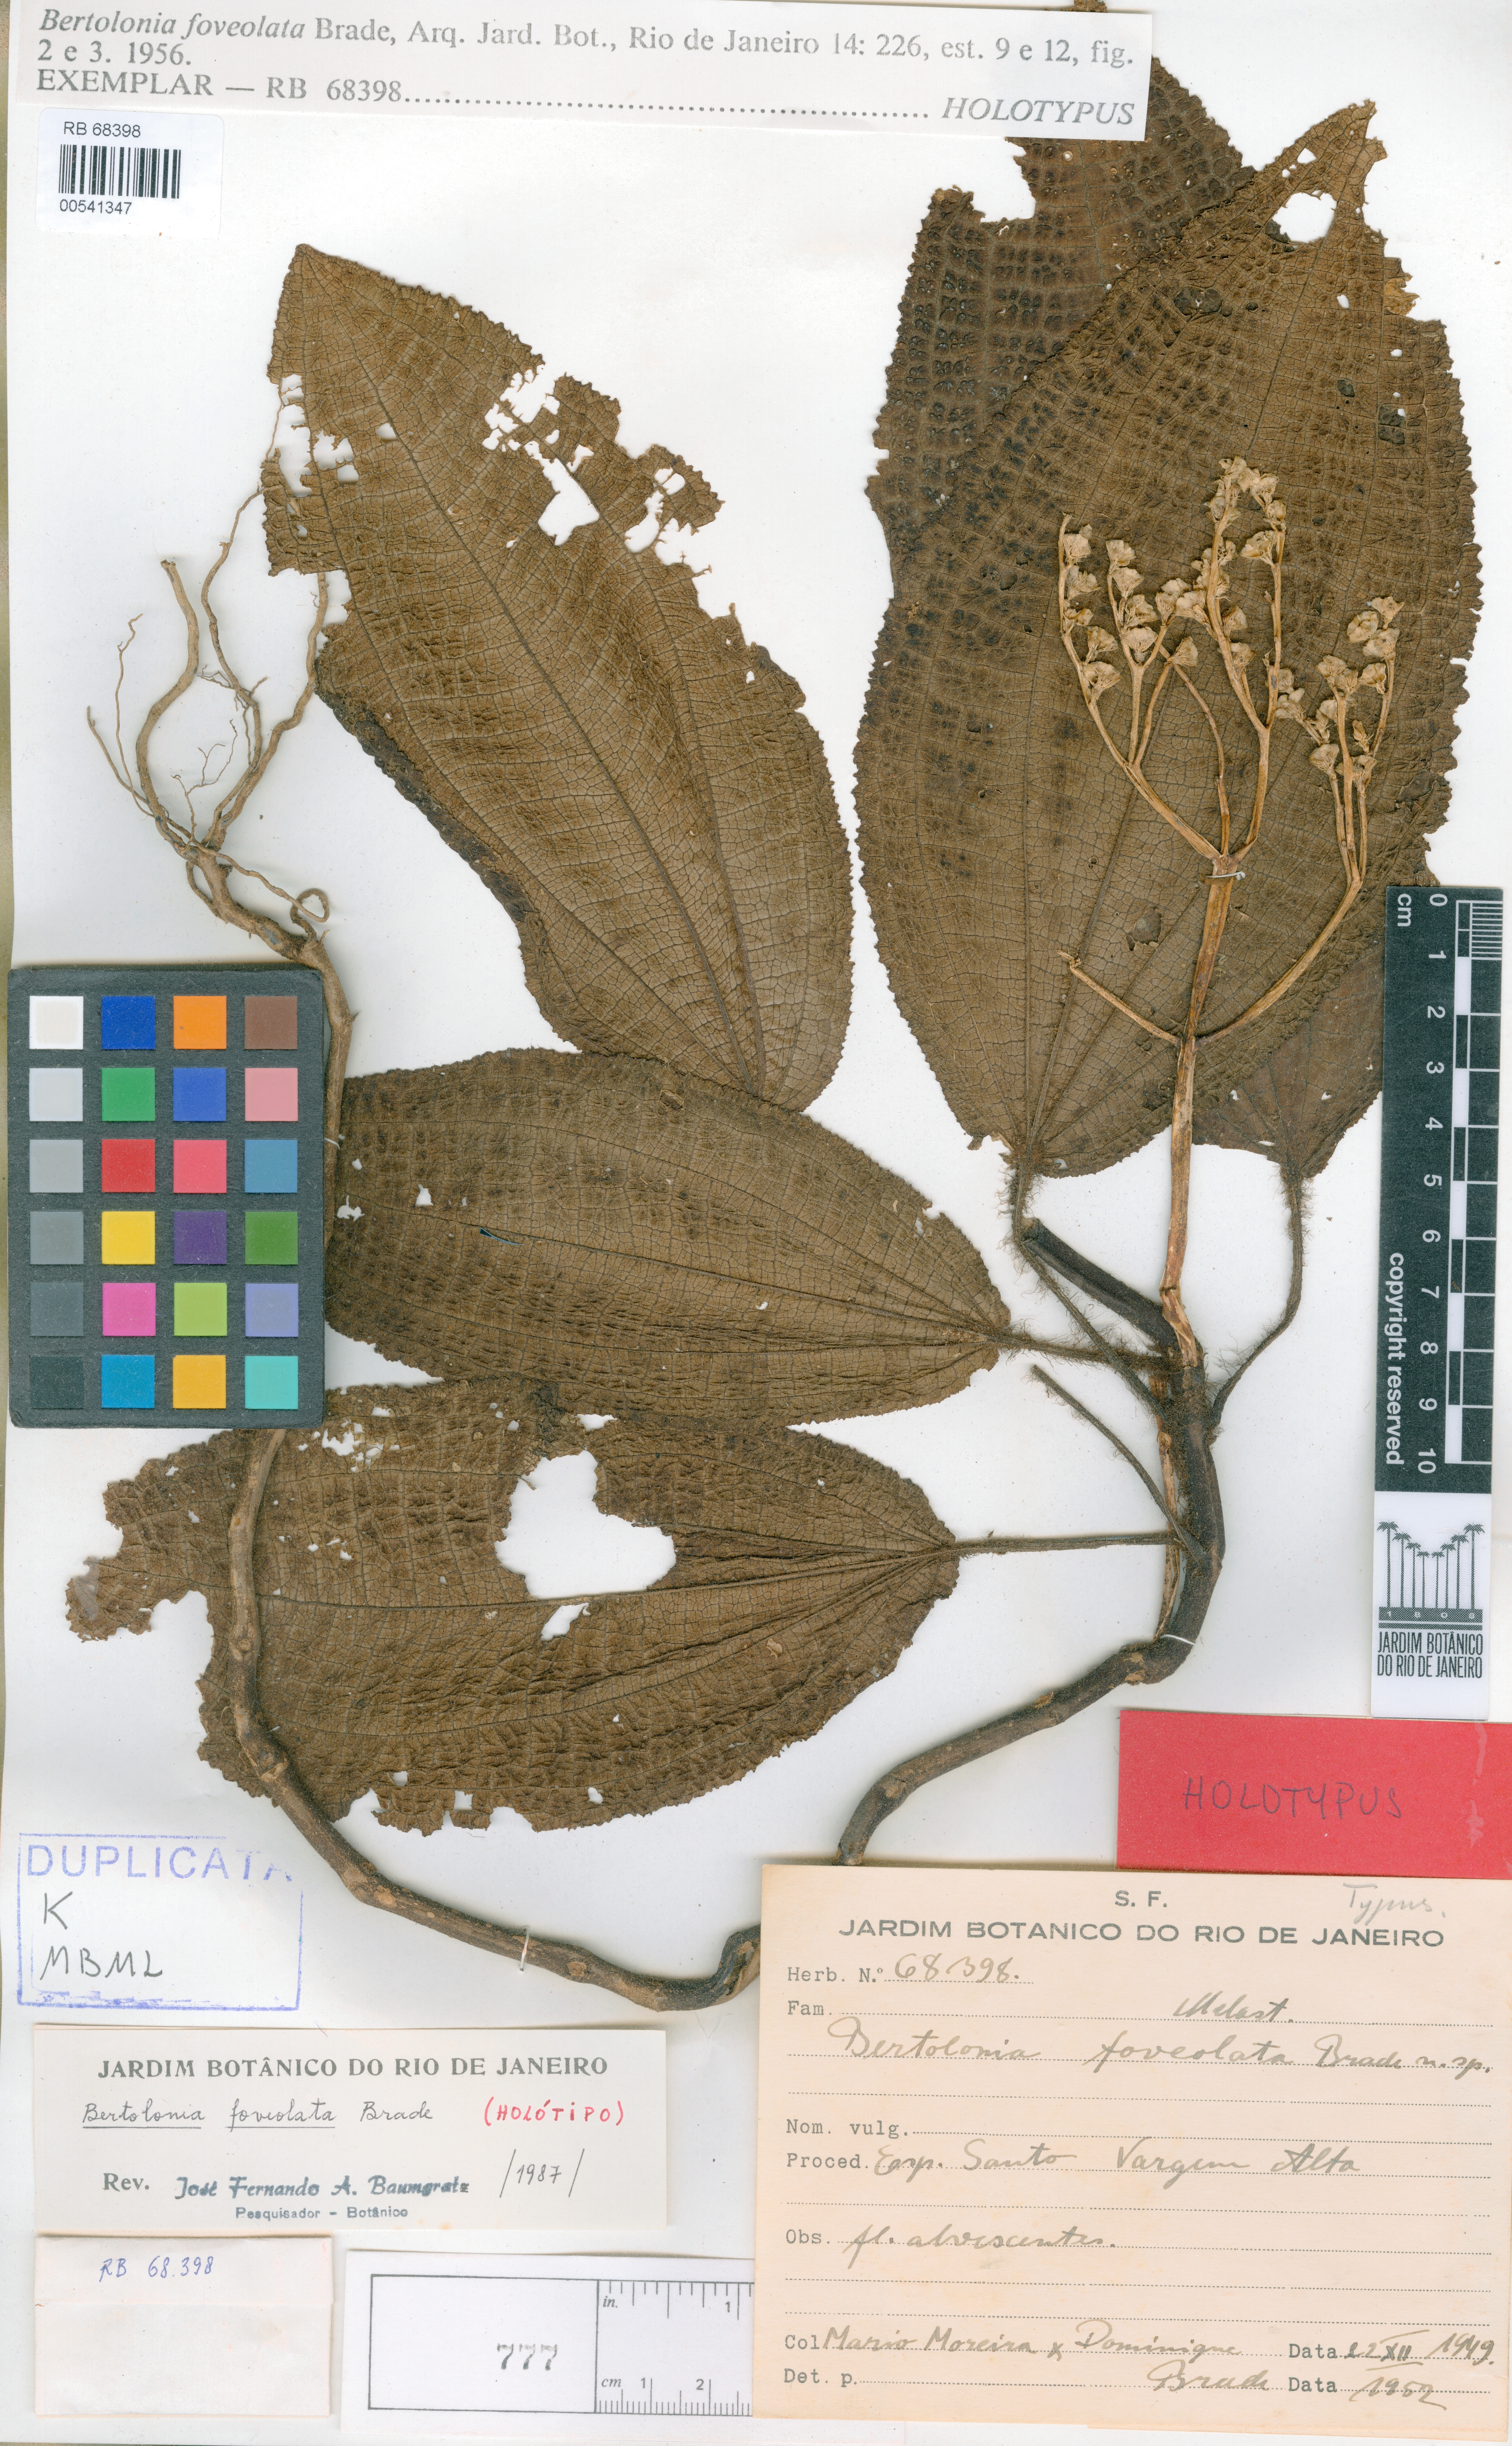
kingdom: Plantae
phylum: Tracheophyta
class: Magnoliopsida
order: Myrtales
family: Melastomataceae
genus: Bertolonia
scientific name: Bertolonia foveolata
